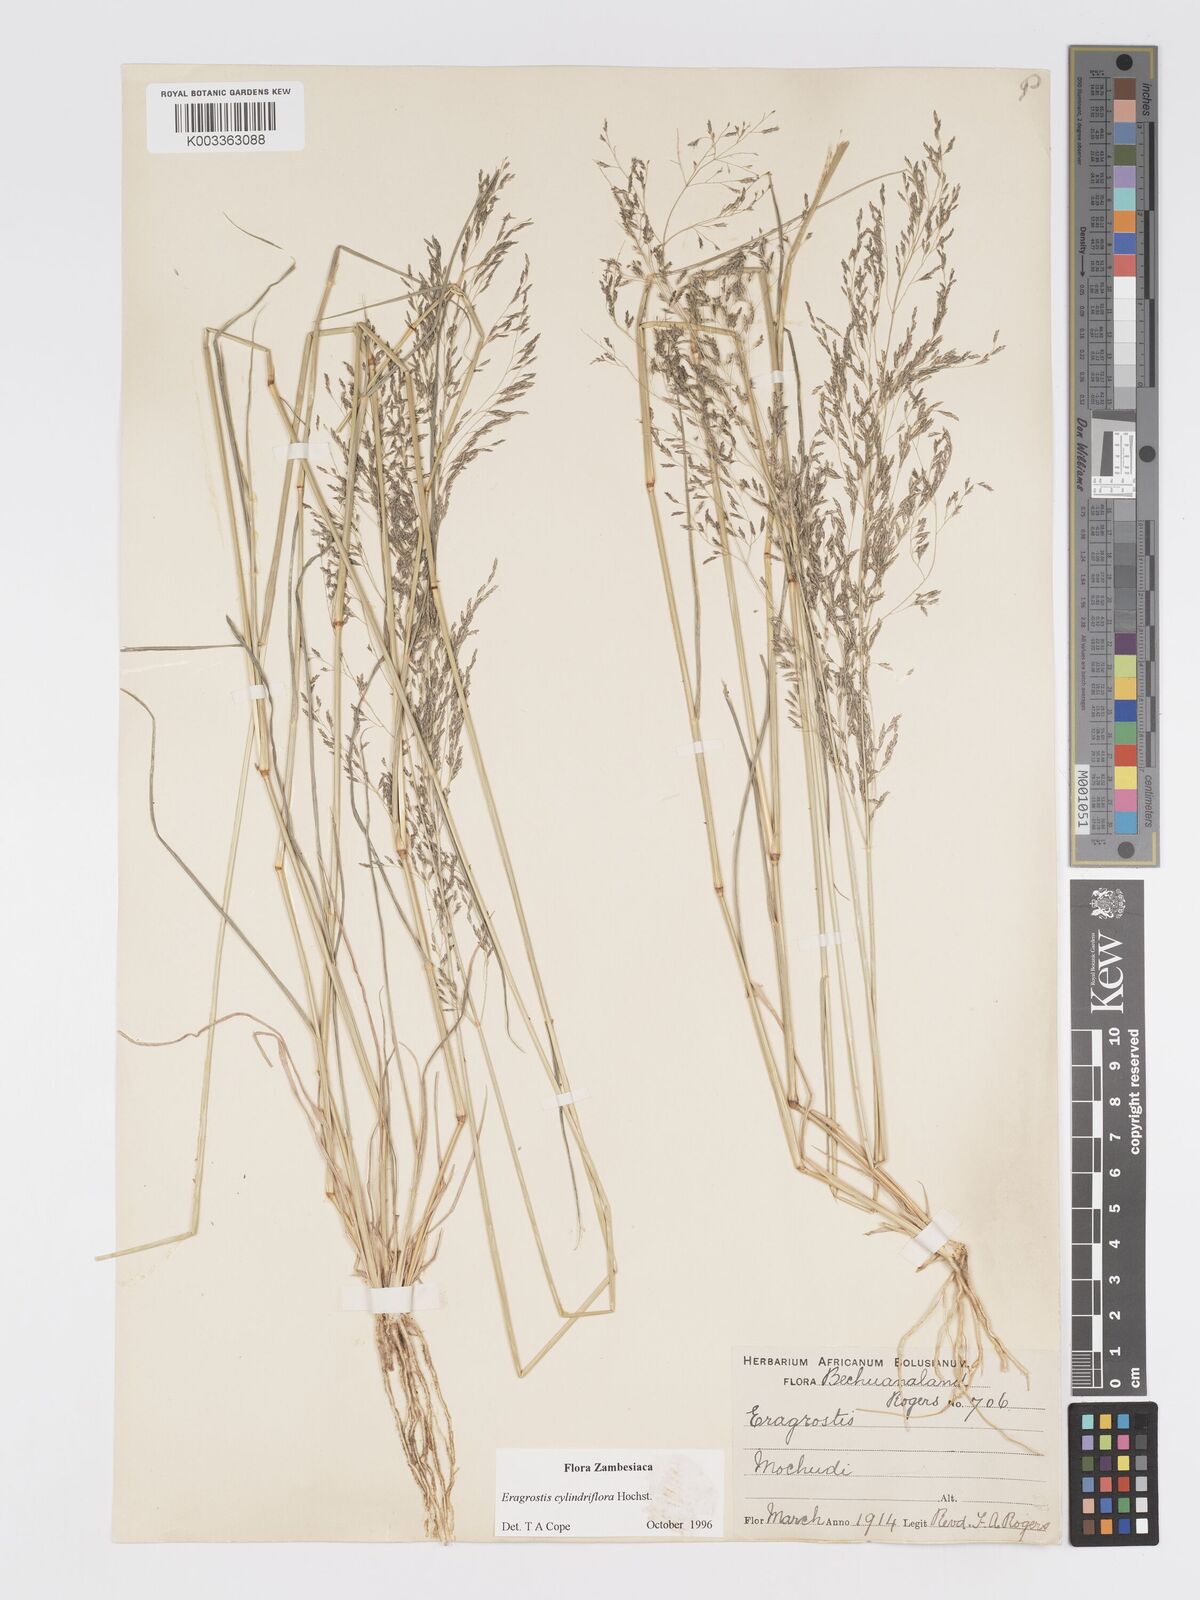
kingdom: Plantae
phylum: Tracheophyta
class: Liliopsida
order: Poales
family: Poaceae
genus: Eragrostis
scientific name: Eragrostis cylindriflora
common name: Cylinderflower lovegrass
